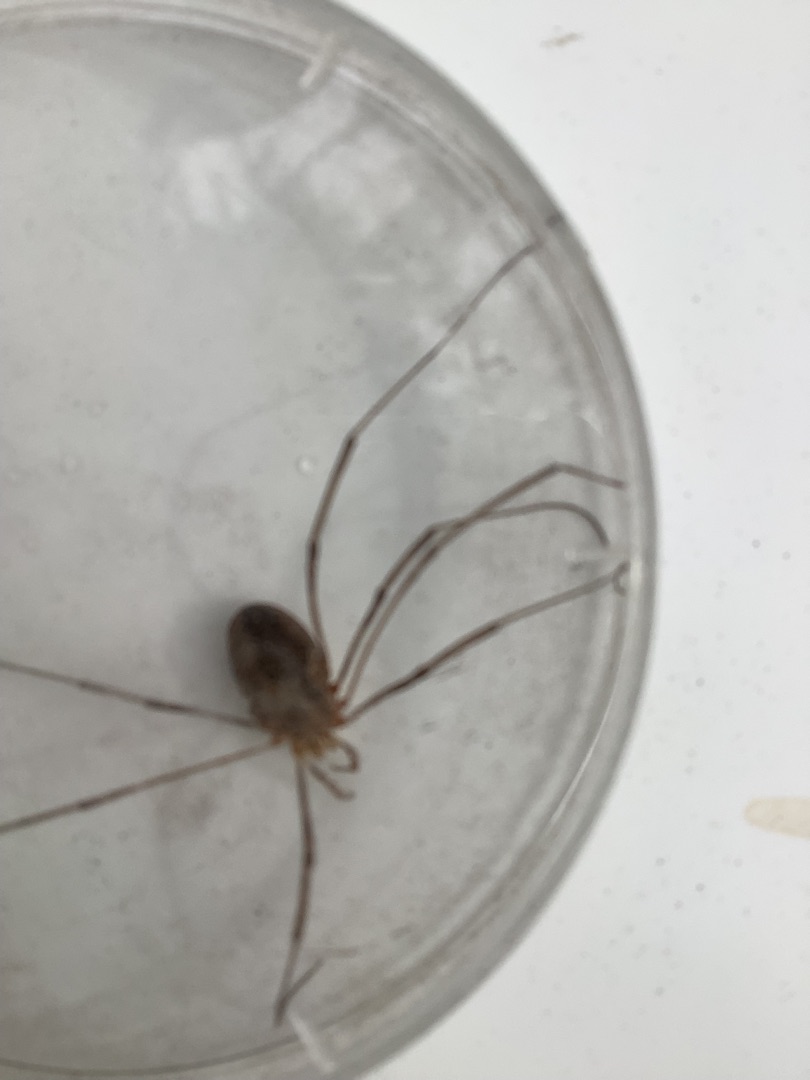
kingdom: Animalia
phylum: Arthropoda
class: Arachnida
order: Opiliones
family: Phalangiidae
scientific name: Phalangiidae
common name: Stormejere
